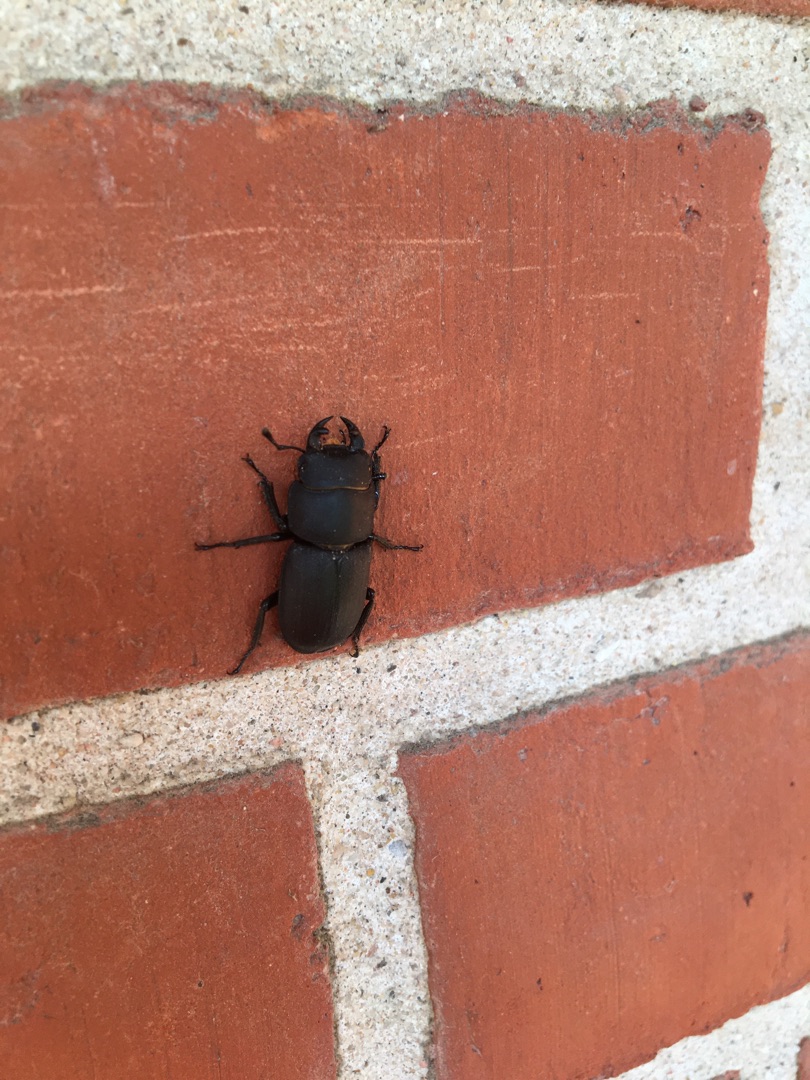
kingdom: Animalia
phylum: Arthropoda
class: Insecta
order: Coleoptera
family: Lucanidae
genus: Dorcus
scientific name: Dorcus parallelipipedus
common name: Bøghjort
